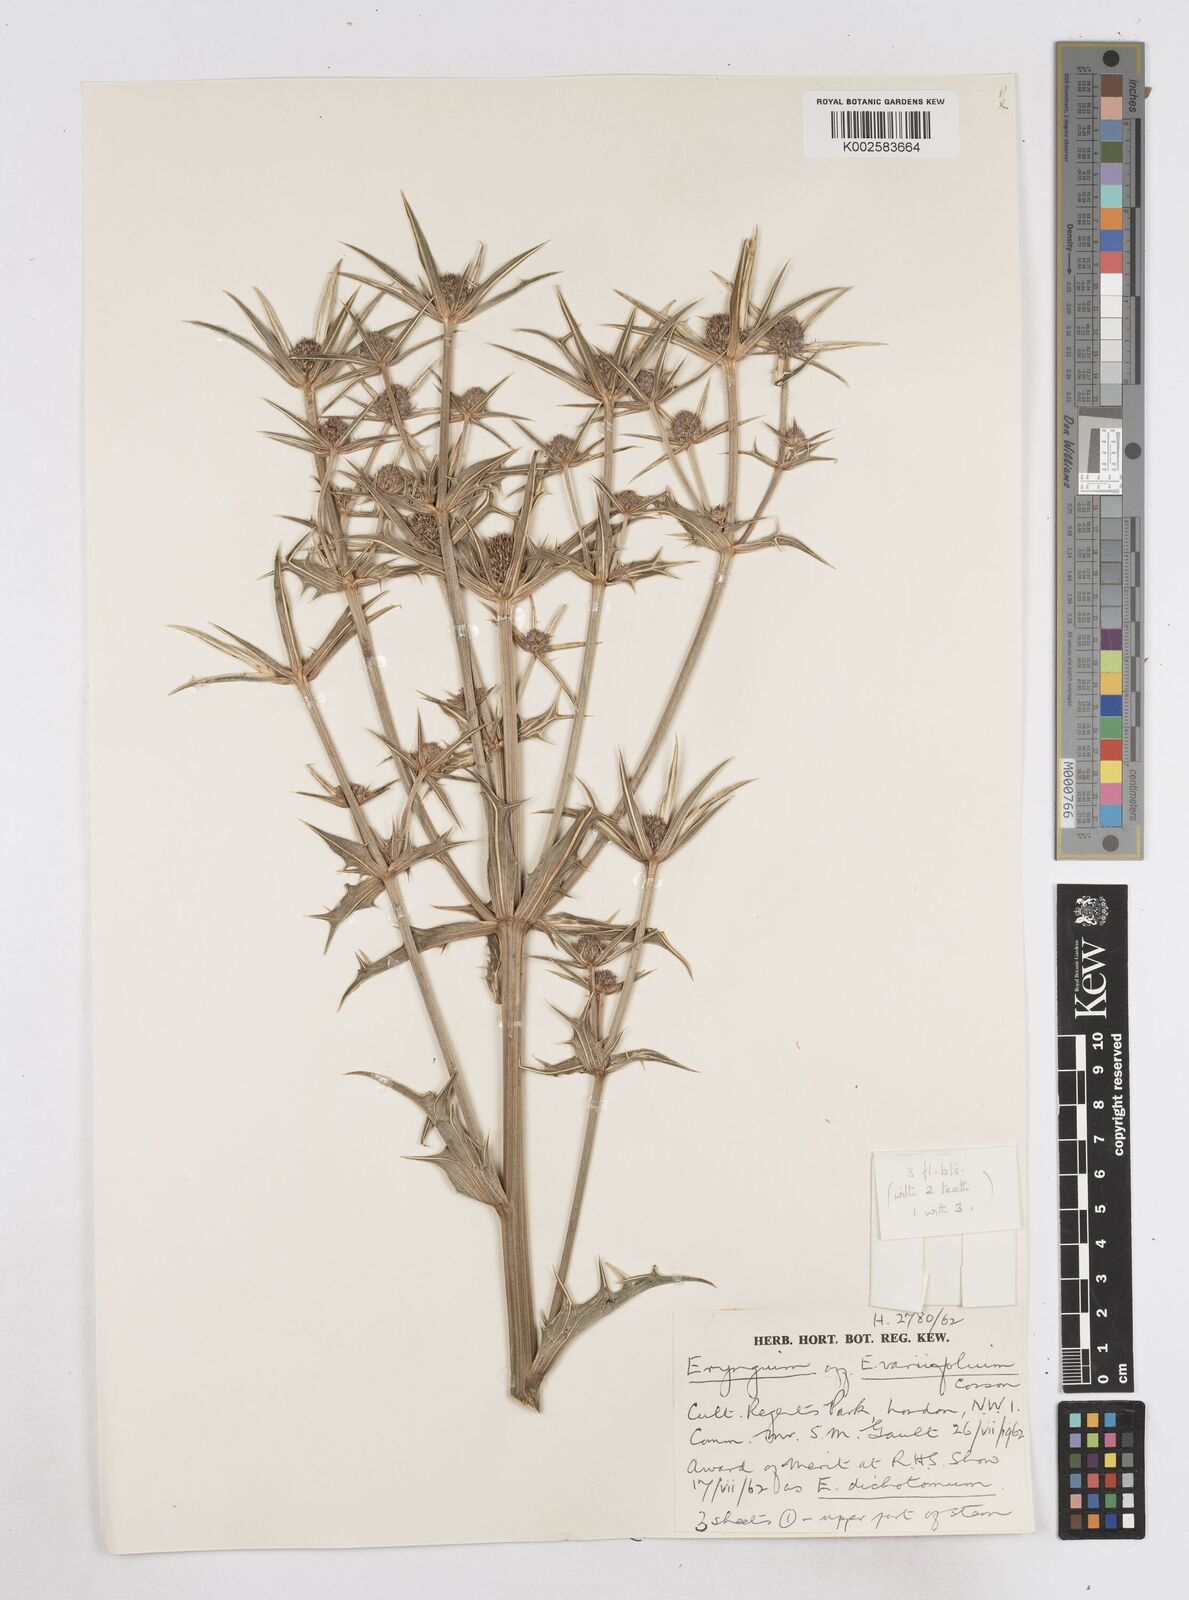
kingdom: Plantae
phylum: Tracheophyta
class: Magnoliopsida
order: Apiales
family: Apiaceae
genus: Eryngium
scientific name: Eryngium variifolium
